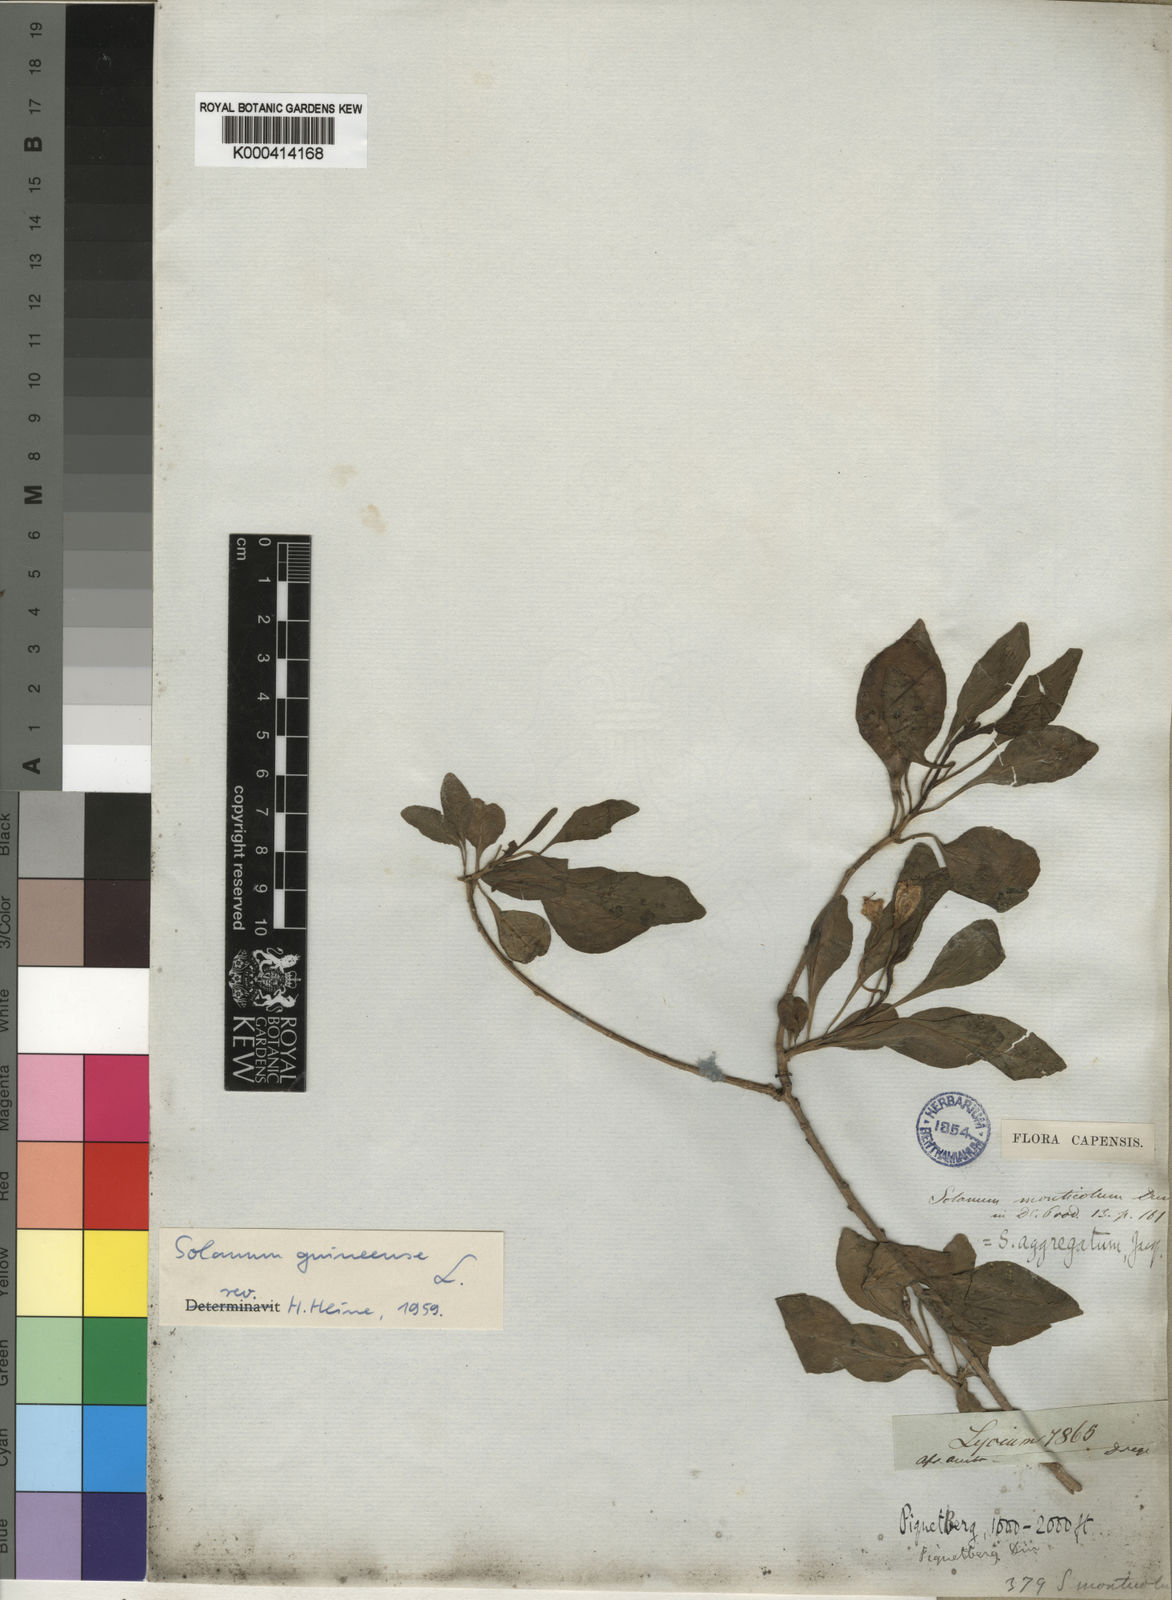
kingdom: Plantae
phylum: Tracheophyta
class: Magnoliopsida
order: Solanales
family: Solanaceae
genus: Solanum
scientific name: Solanum guineense
